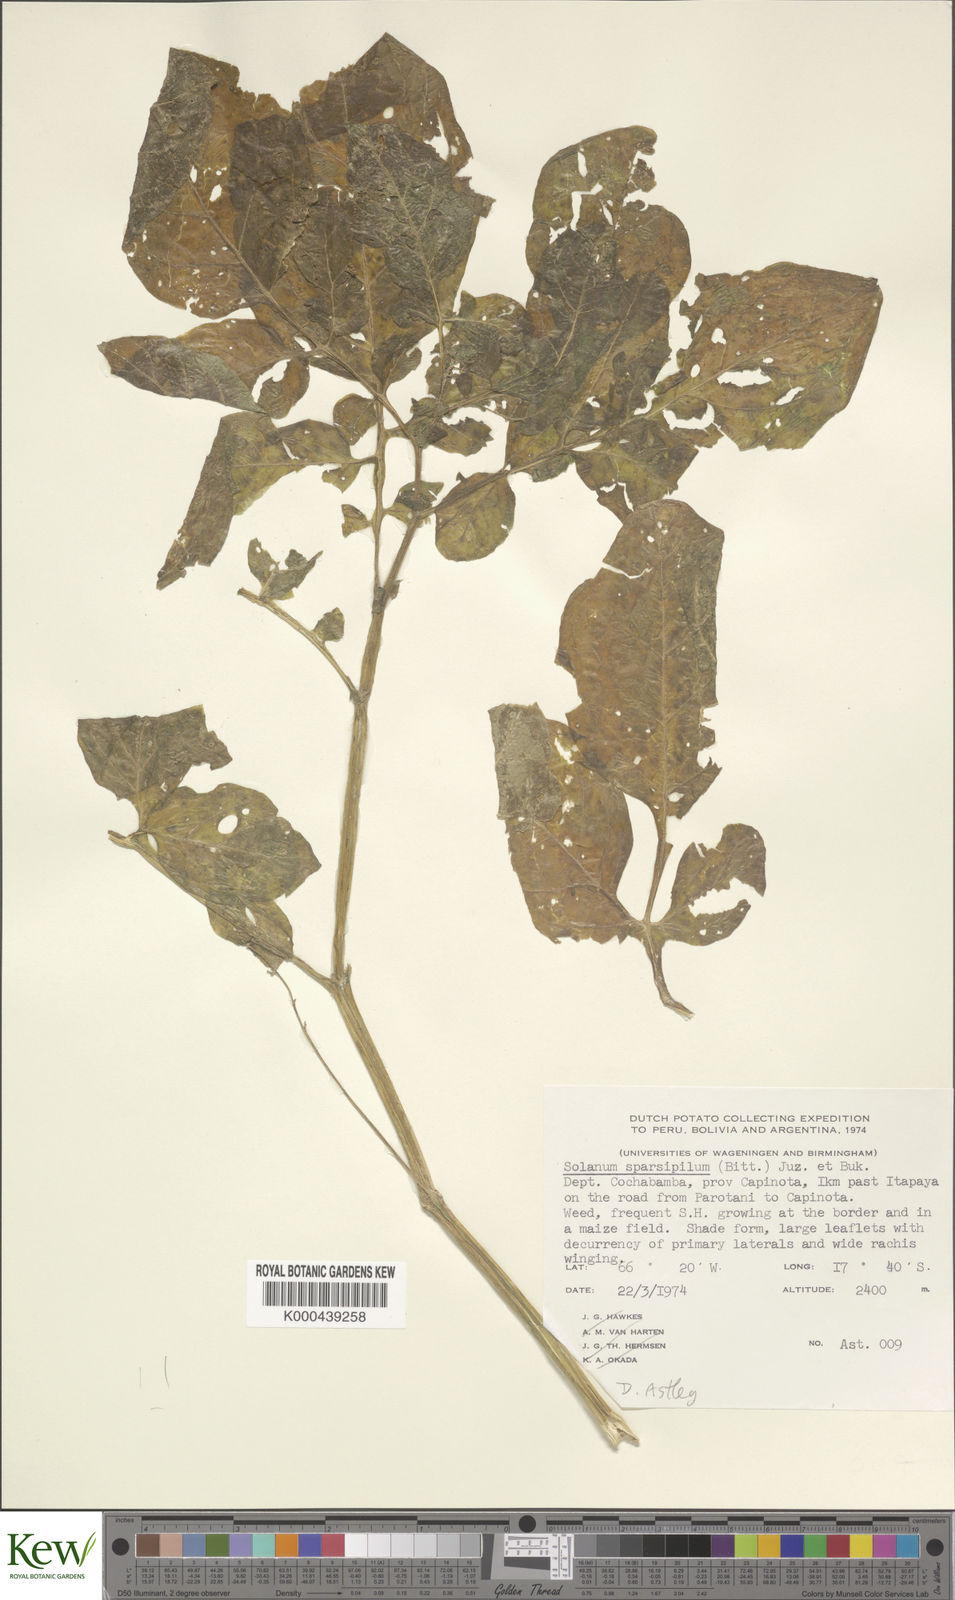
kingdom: Plantae
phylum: Tracheophyta
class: Magnoliopsida
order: Solanales
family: Solanaceae
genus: Solanum
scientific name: Solanum brevicaule
